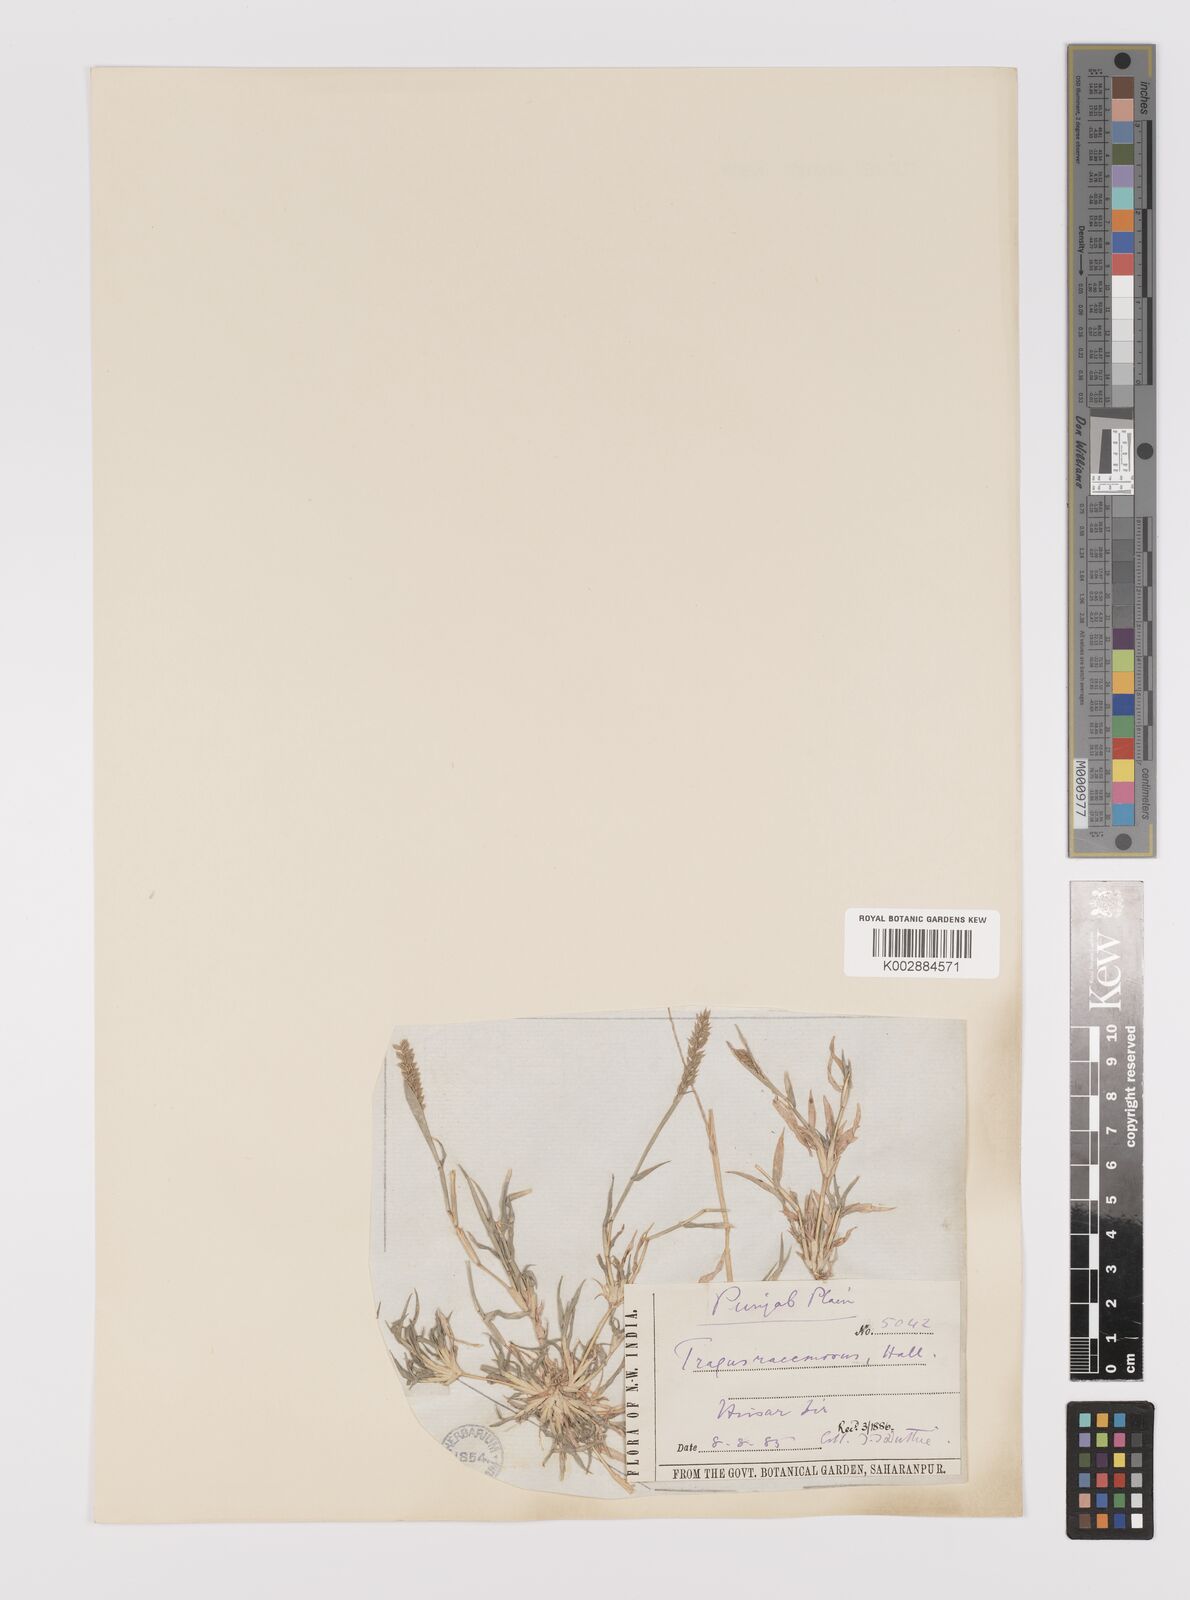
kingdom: Plantae
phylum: Tracheophyta
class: Liliopsida
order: Poales
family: Poaceae
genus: Tragus
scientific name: Tragus mongolorum
